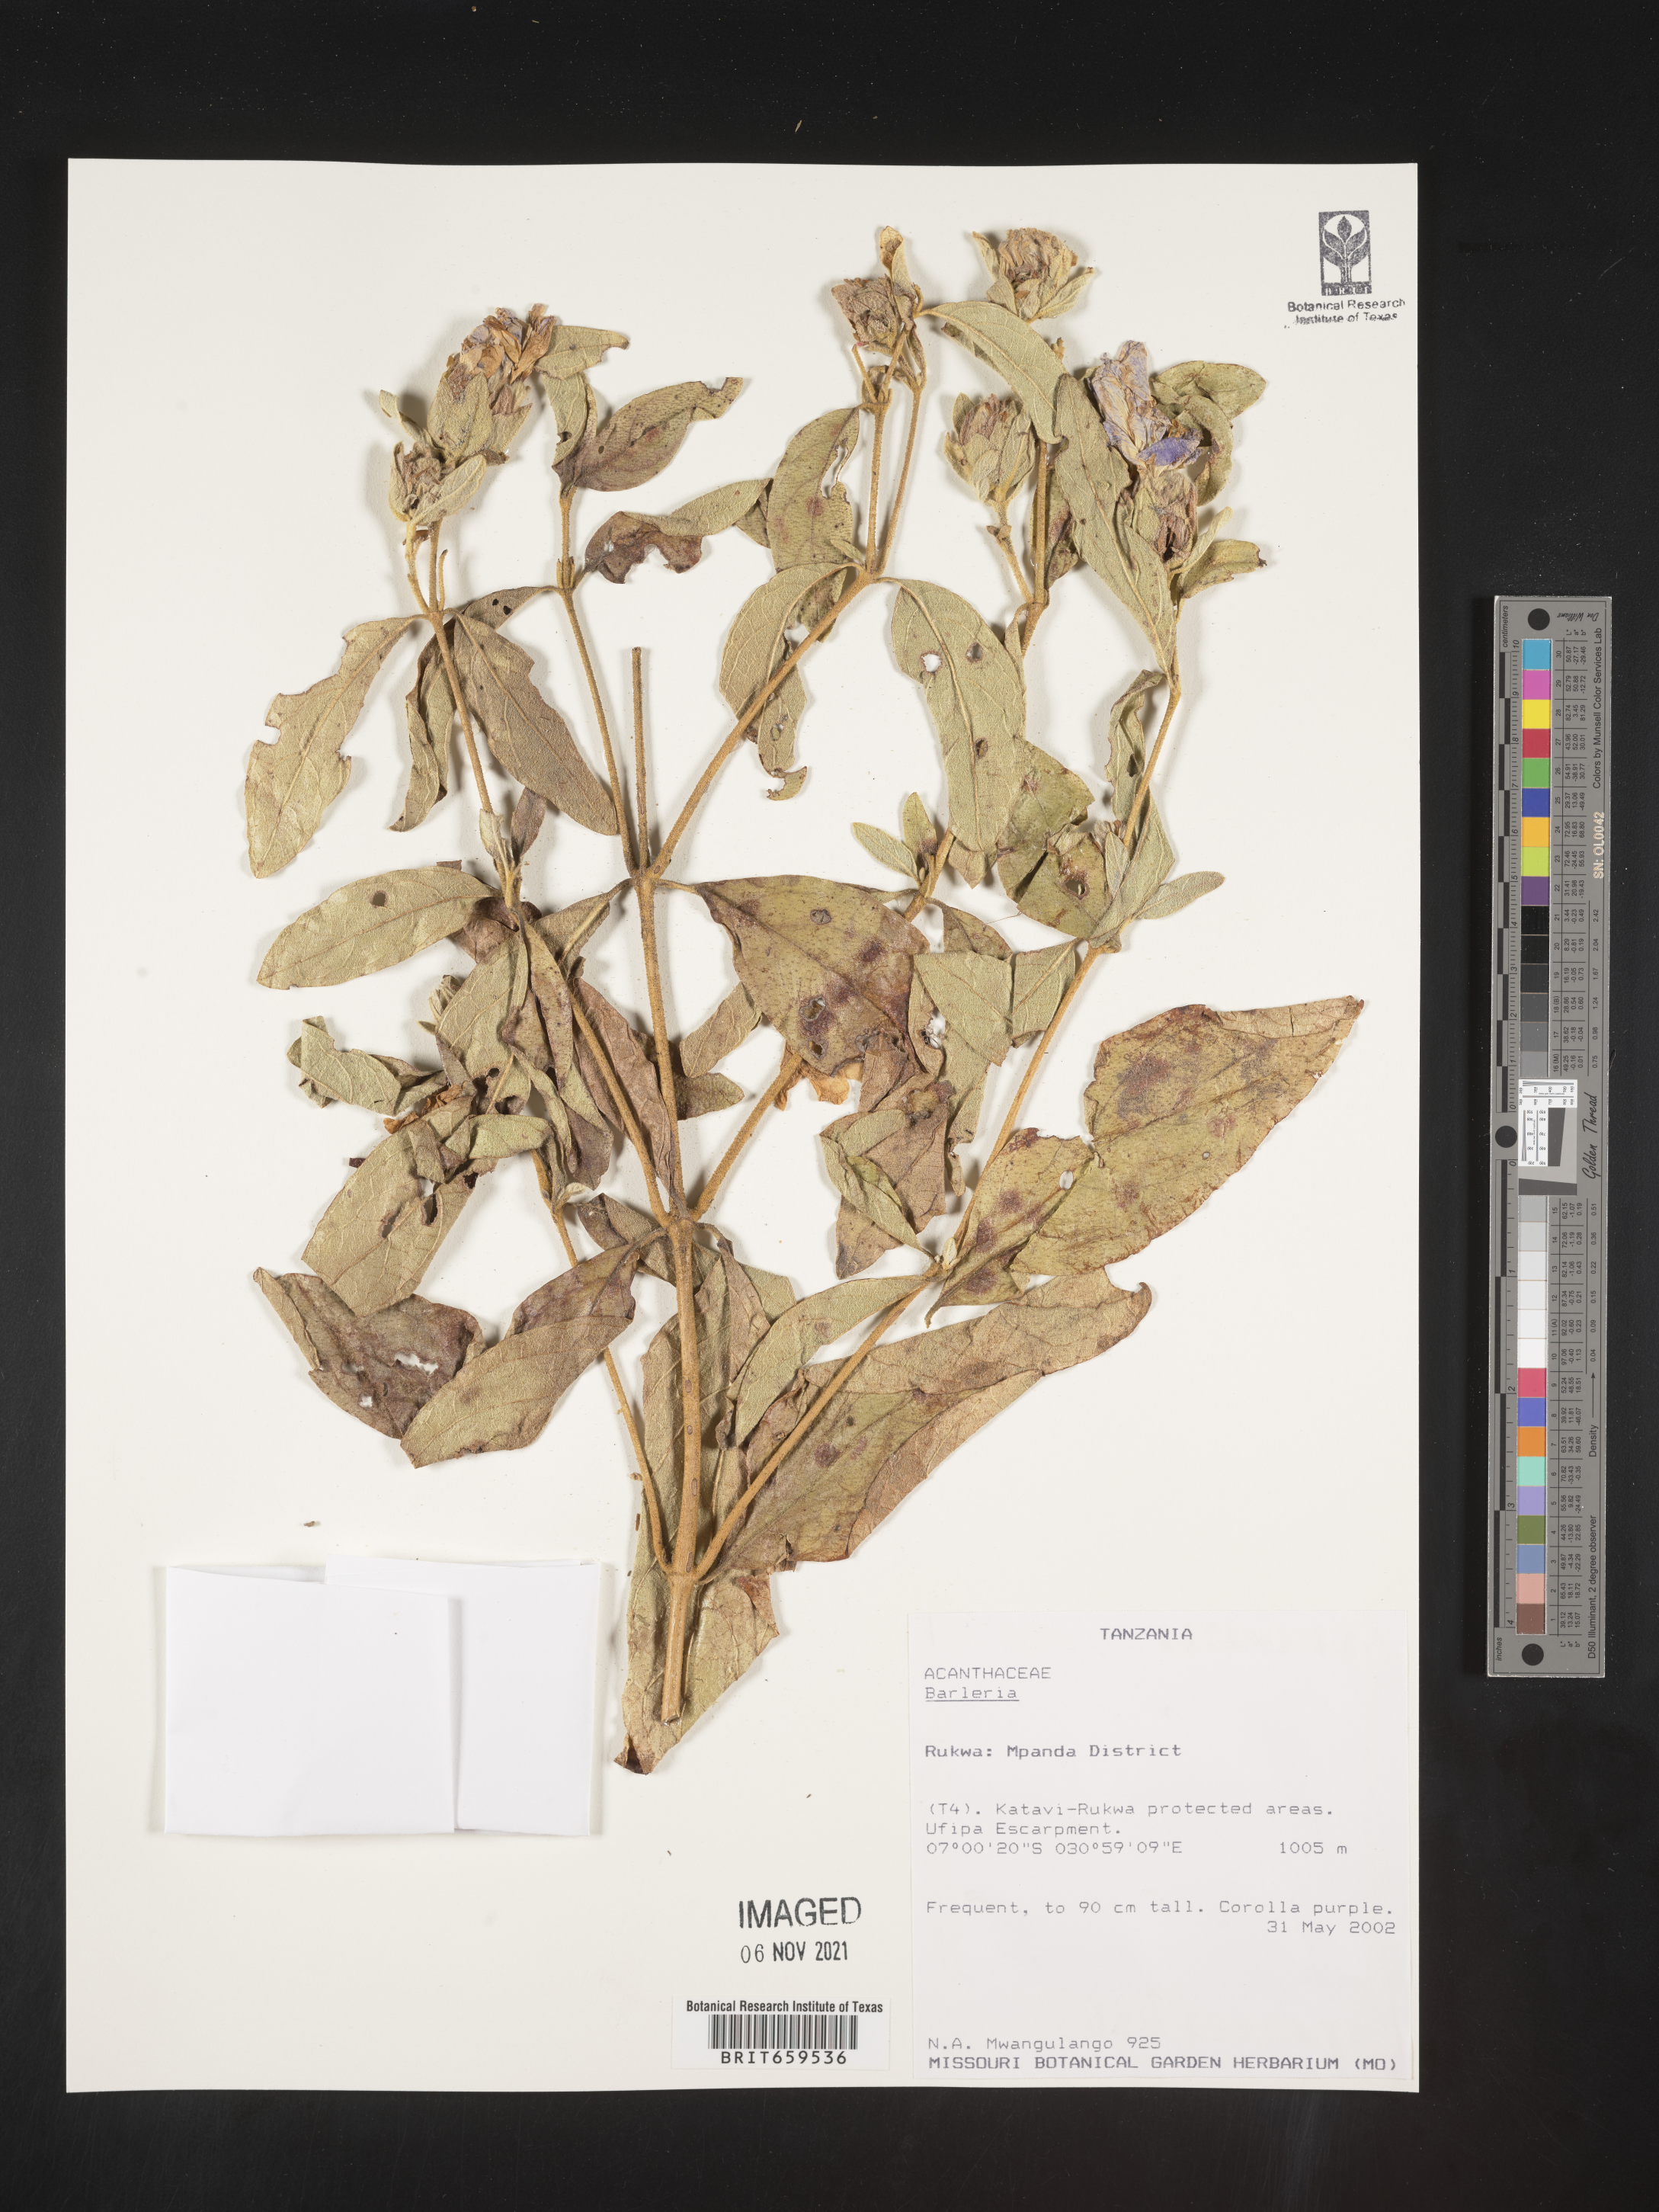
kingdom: Plantae
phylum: Tracheophyta
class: Magnoliopsida
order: Lamiales
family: Acanthaceae
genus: Barleria
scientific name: Barleria
